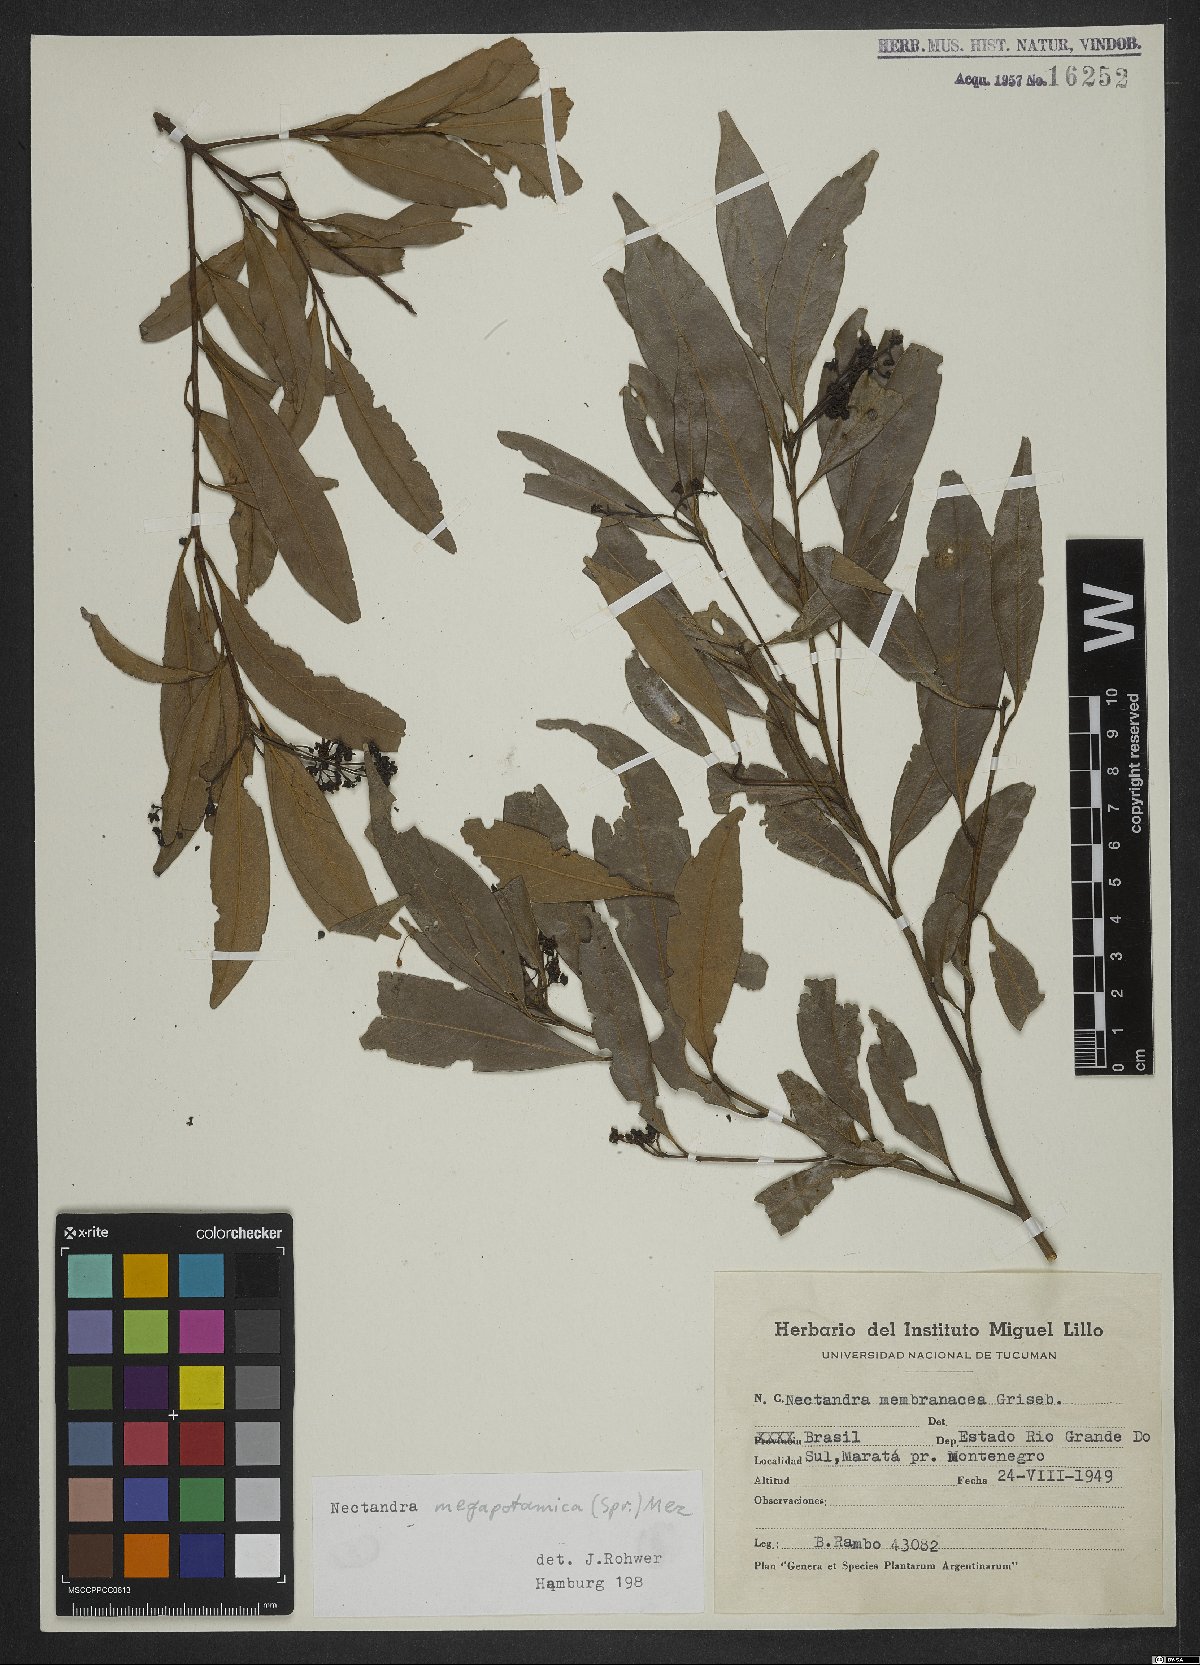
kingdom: Plantae
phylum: Tracheophyta
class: Magnoliopsida
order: Laurales
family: Lauraceae
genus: Nectandra
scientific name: Nectandra megapotamica
